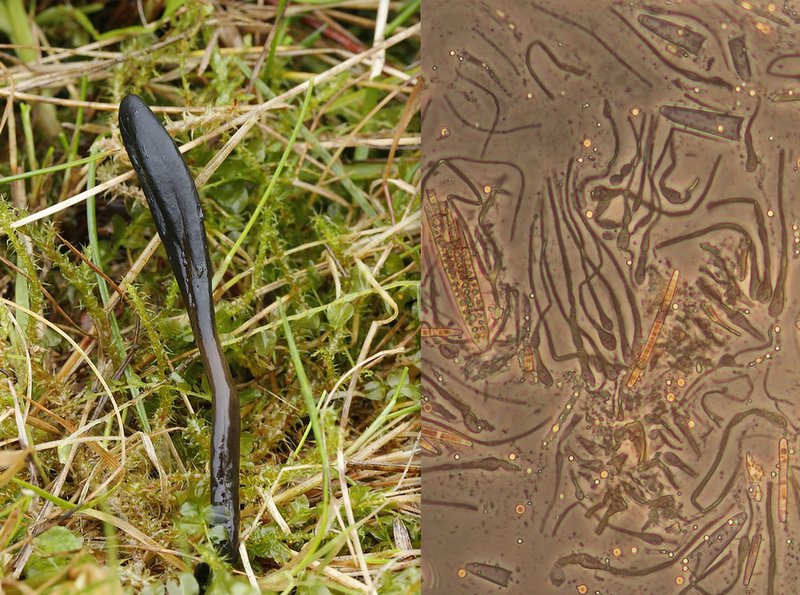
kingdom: Fungi
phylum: Ascomycota
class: Geoglossomycetes
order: Geoglossales
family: Geoglossaceae
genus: Glutinoglossum
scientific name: Glutinoglossum glutinosum
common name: slimet jordtunge
